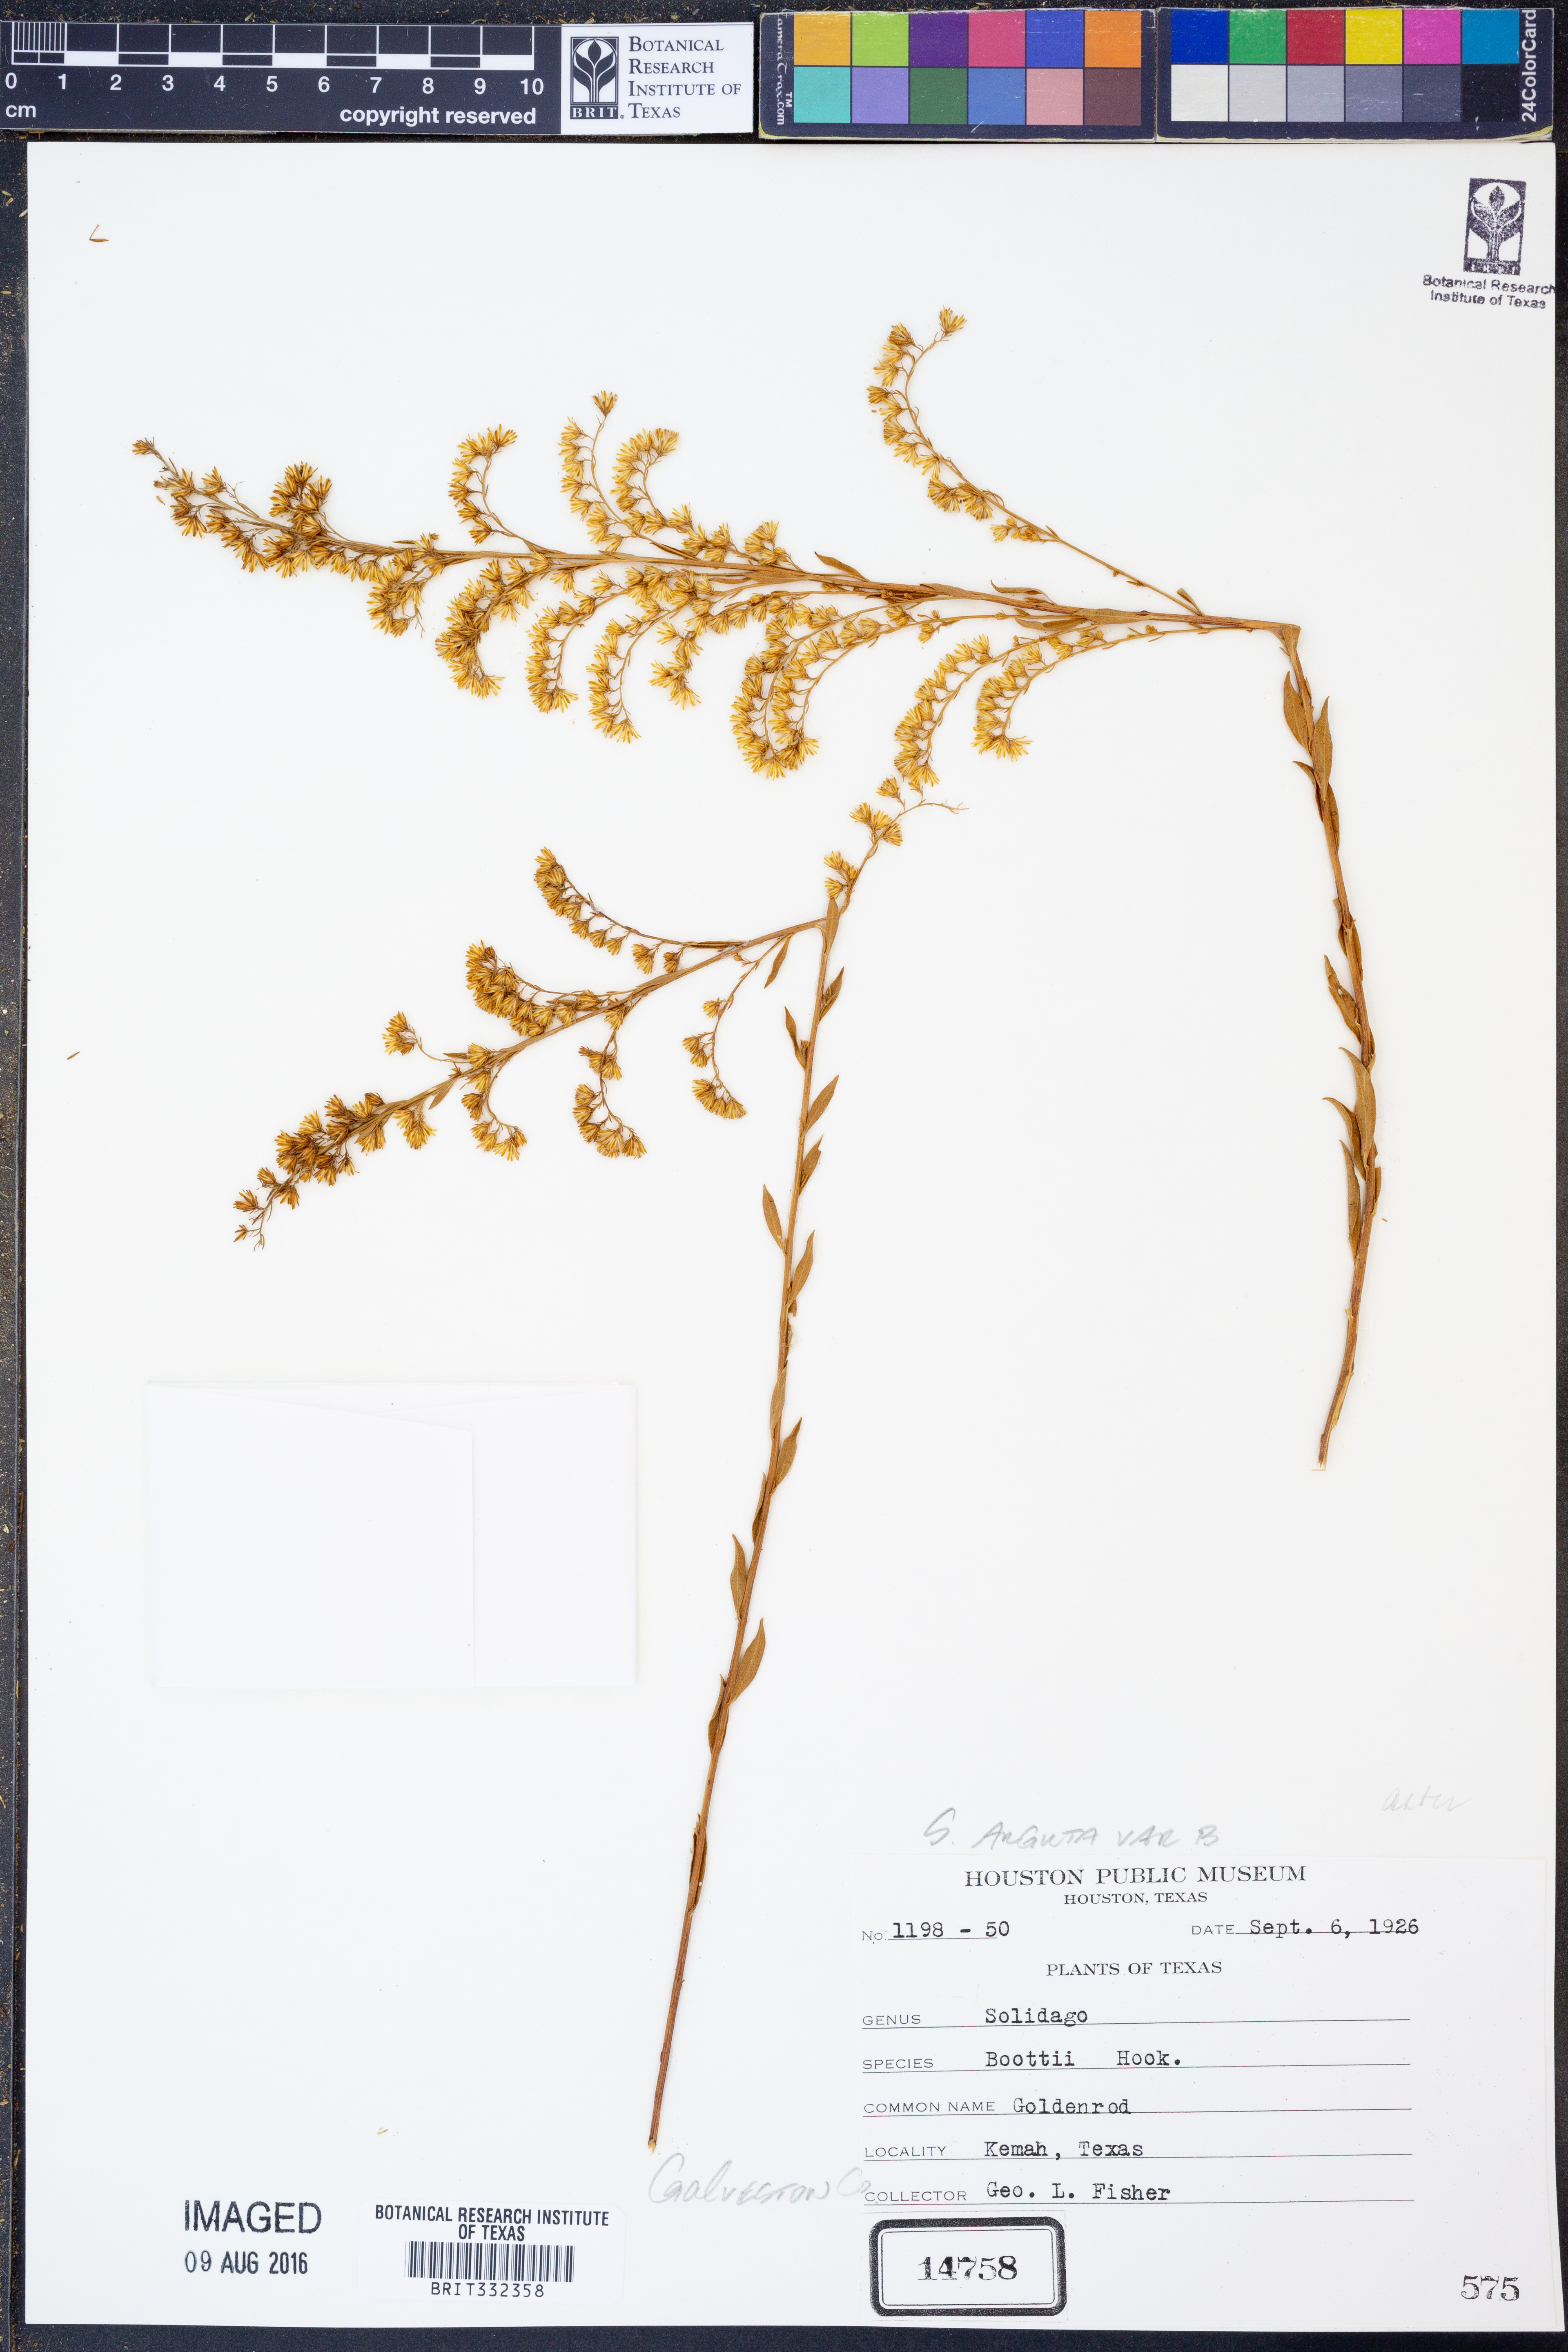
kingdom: Plantae
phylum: Tracheophyta
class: Magnoliopsida
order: Asterales
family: Asteraceae
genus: Solidago
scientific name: Solidago boottii
